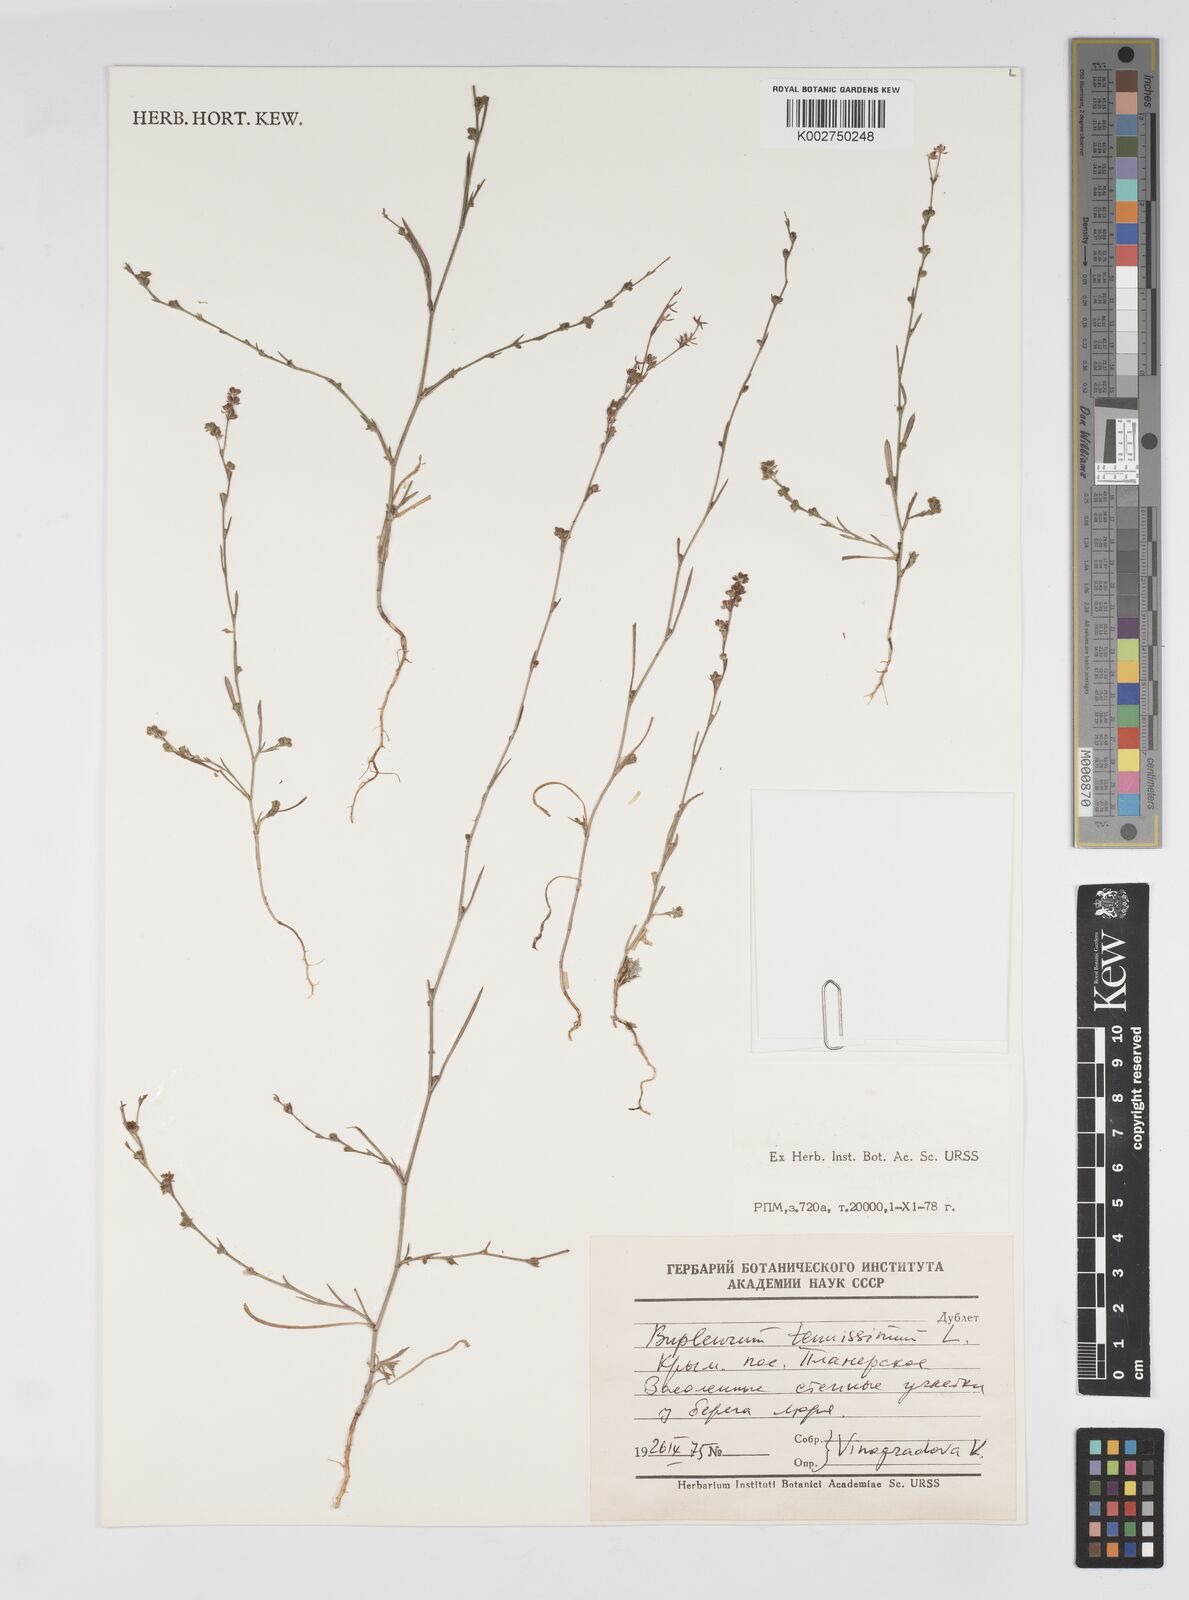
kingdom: Plantae
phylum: Tracheophyta
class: Magnoliopsida
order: Apiales
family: Apiaceae
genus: Bupleurum
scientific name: Bupleurum tenuissimum
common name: Slender hare's-ear
